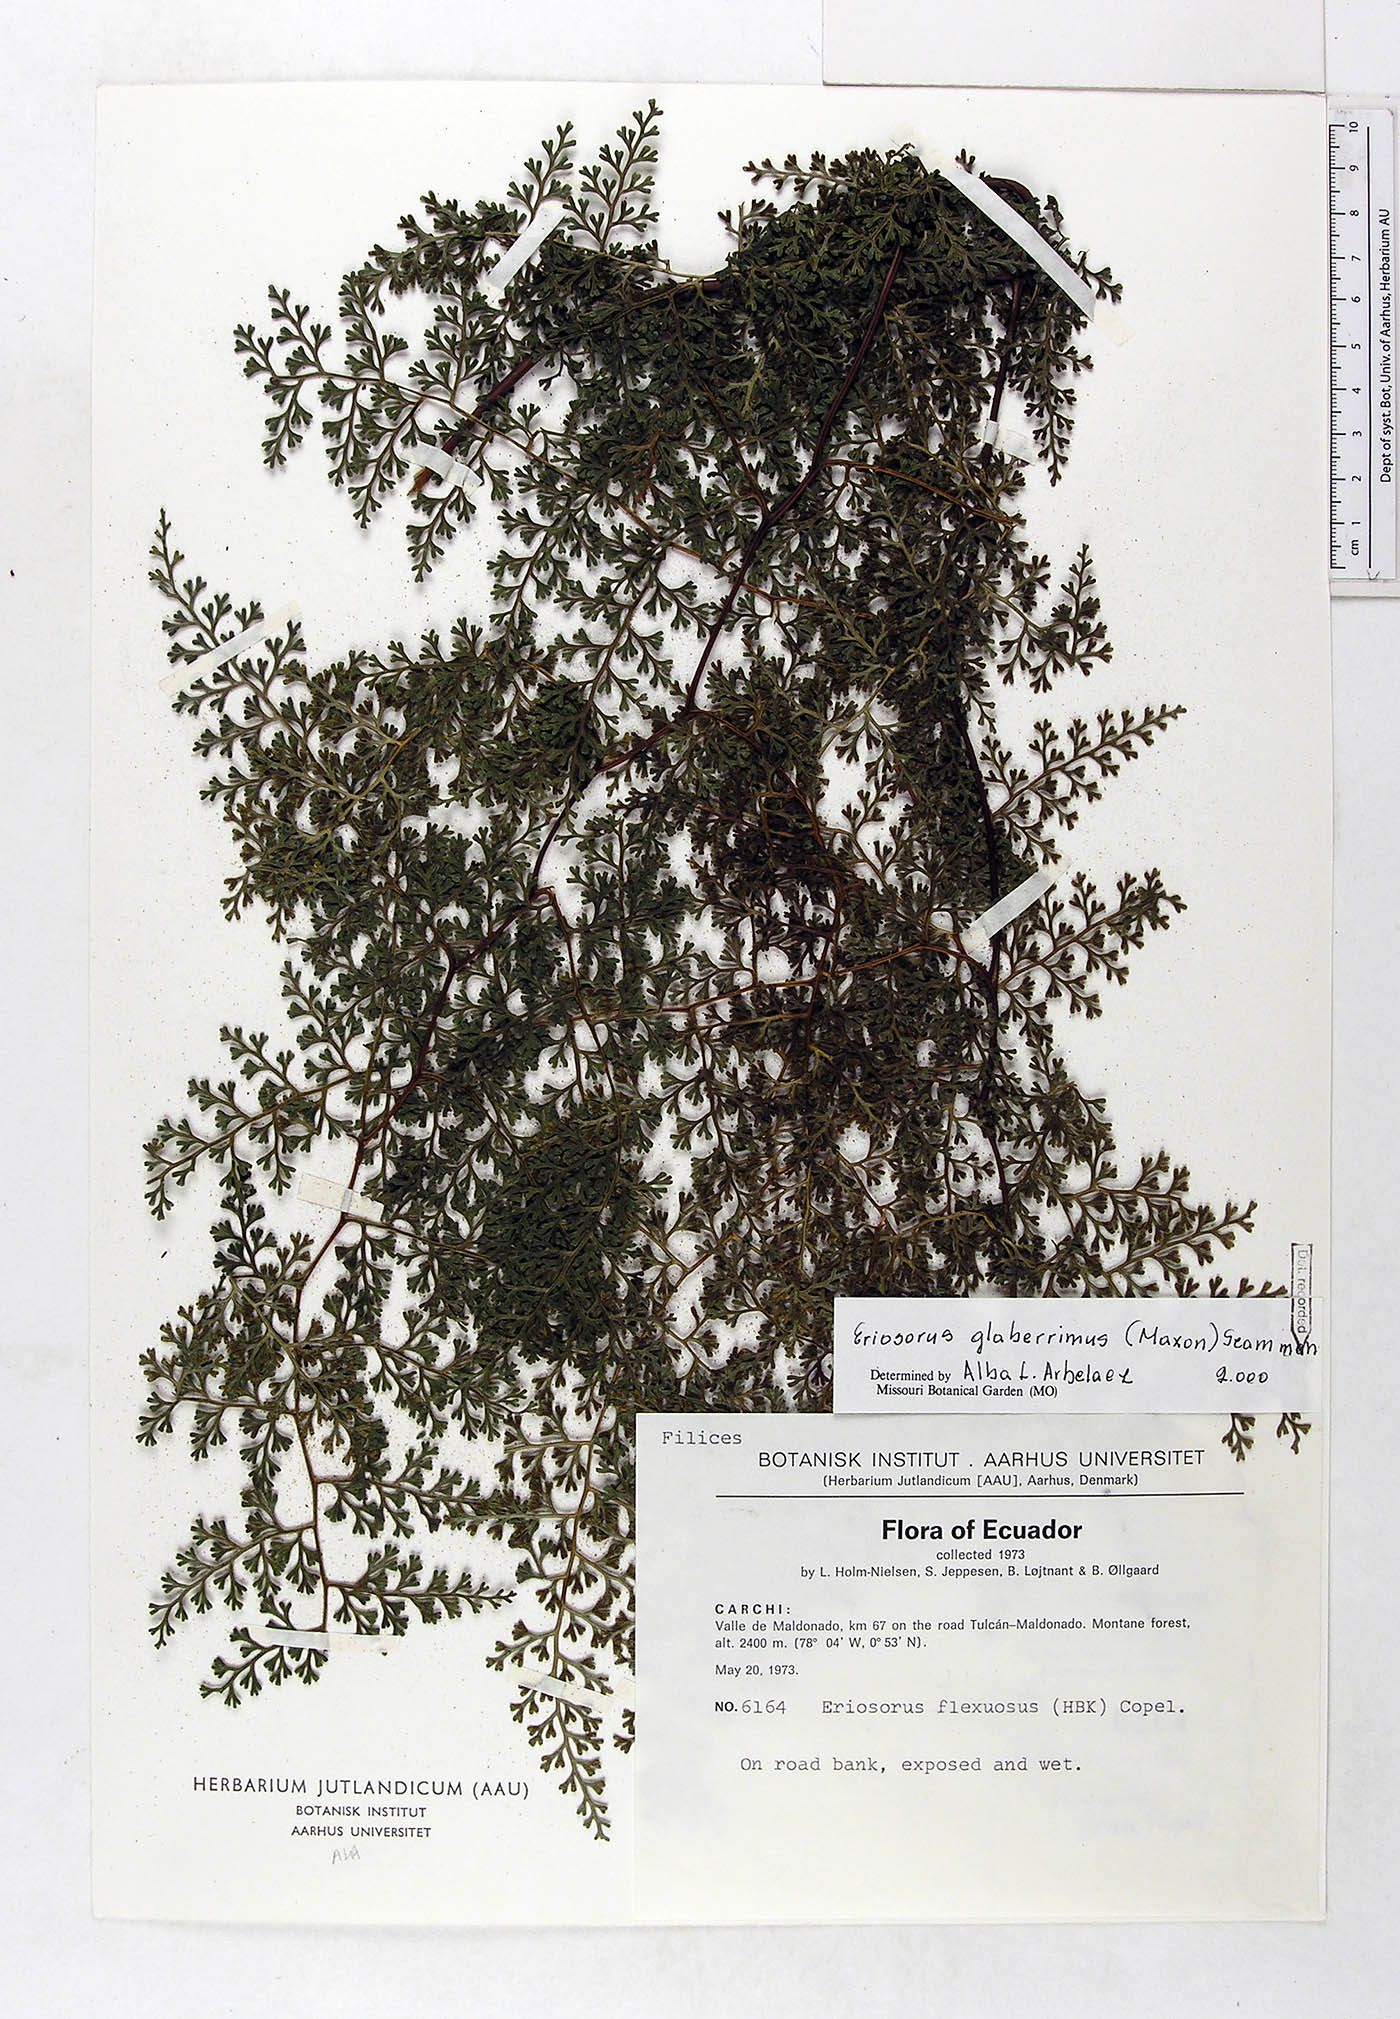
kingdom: Plantae
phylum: Tracheophyta
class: Polypodiopsida
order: Polypodiales
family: Pteridaceae
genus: Jamesonia
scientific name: Jamesonia glaberrima
